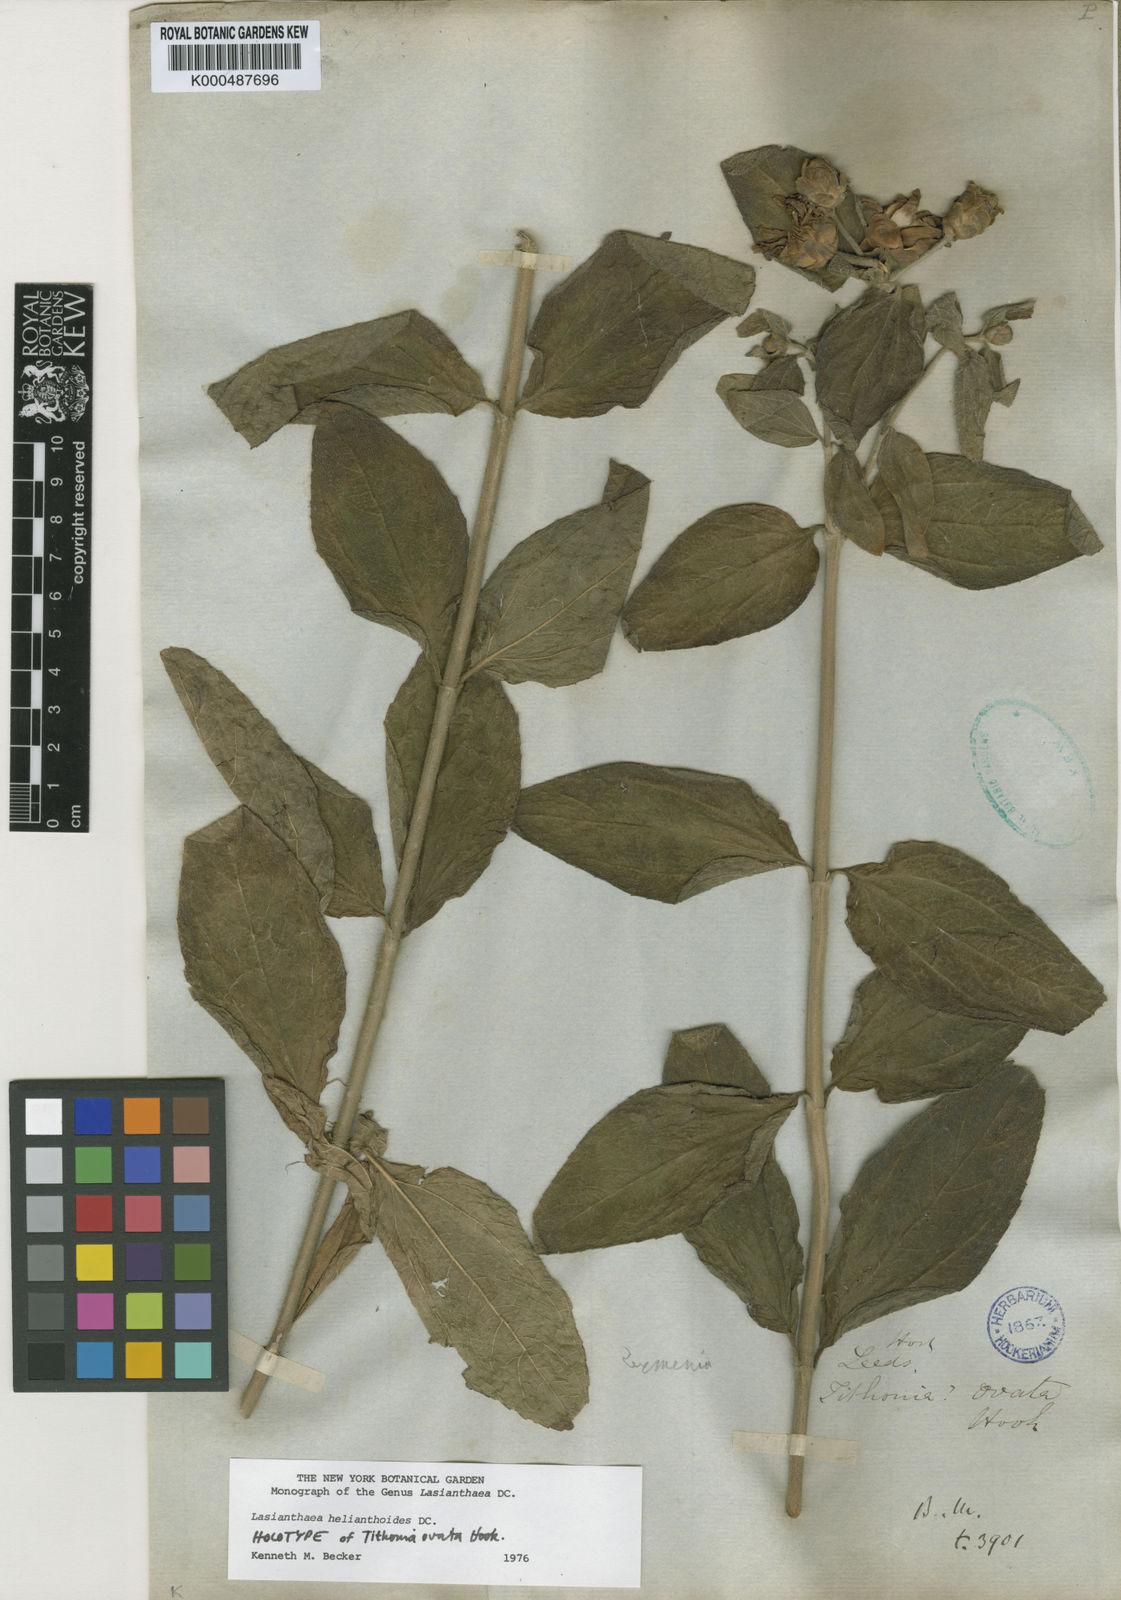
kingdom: Plantae
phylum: Tracheophyta
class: Magnoliopsida
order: Asterales
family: Asteraceae
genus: Lasianthaea
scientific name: Lasianthaea helianthoides
